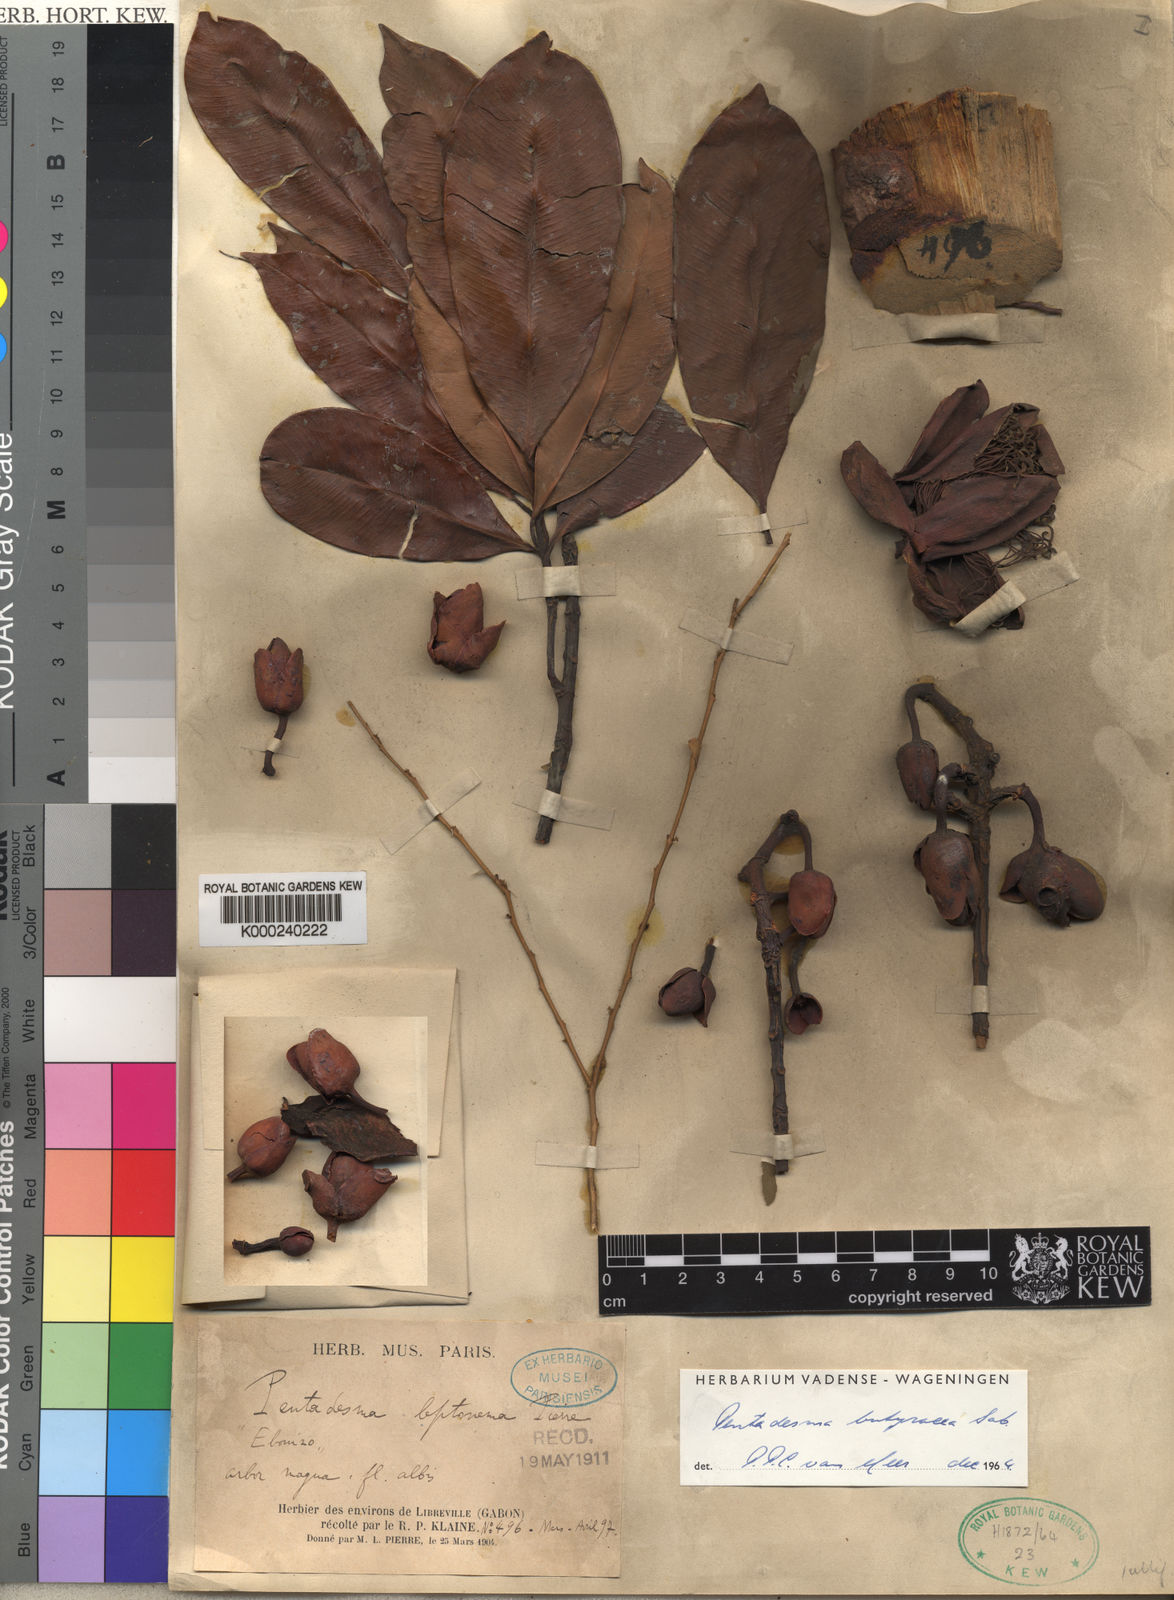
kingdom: Plantae
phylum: Tracheophyta
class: Magnoliopsida
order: Malpighiales
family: Clusiaceae
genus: Pentadesma
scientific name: Pentadesma butyracea
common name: Buttertree
